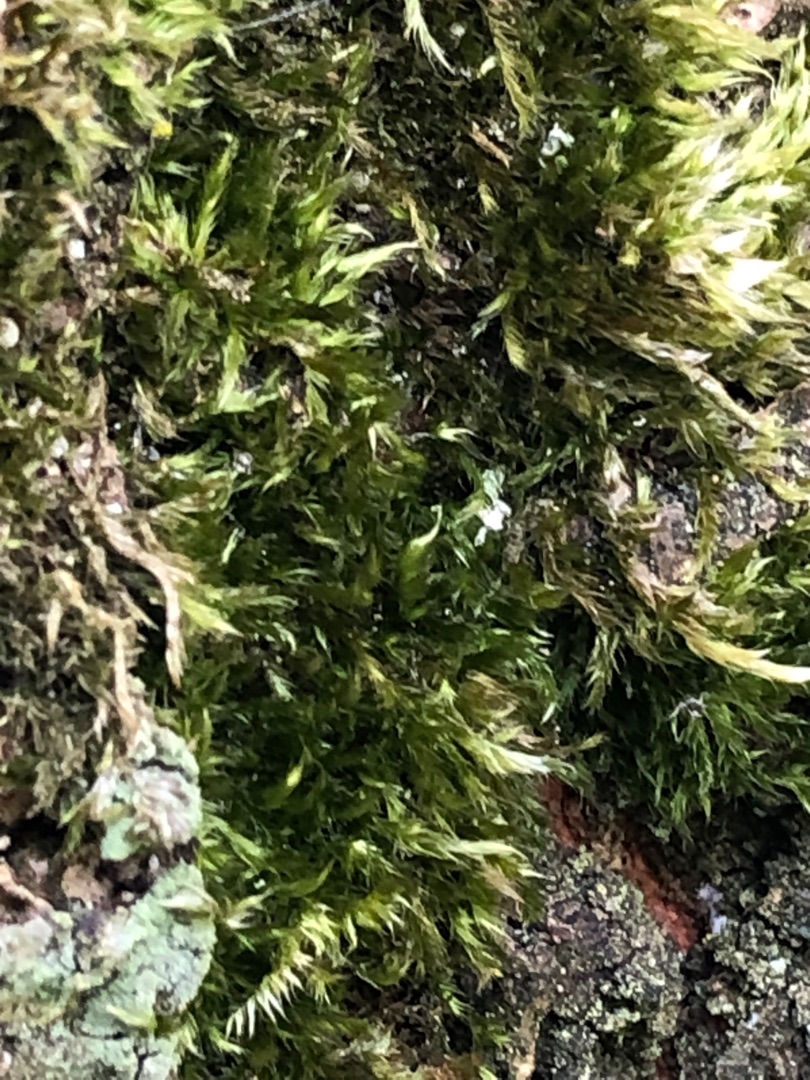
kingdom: Plantae
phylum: Bryophyta
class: Bryopsida
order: Hypnales
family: Hypnaceae
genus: Hypnum
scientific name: Hypnum
